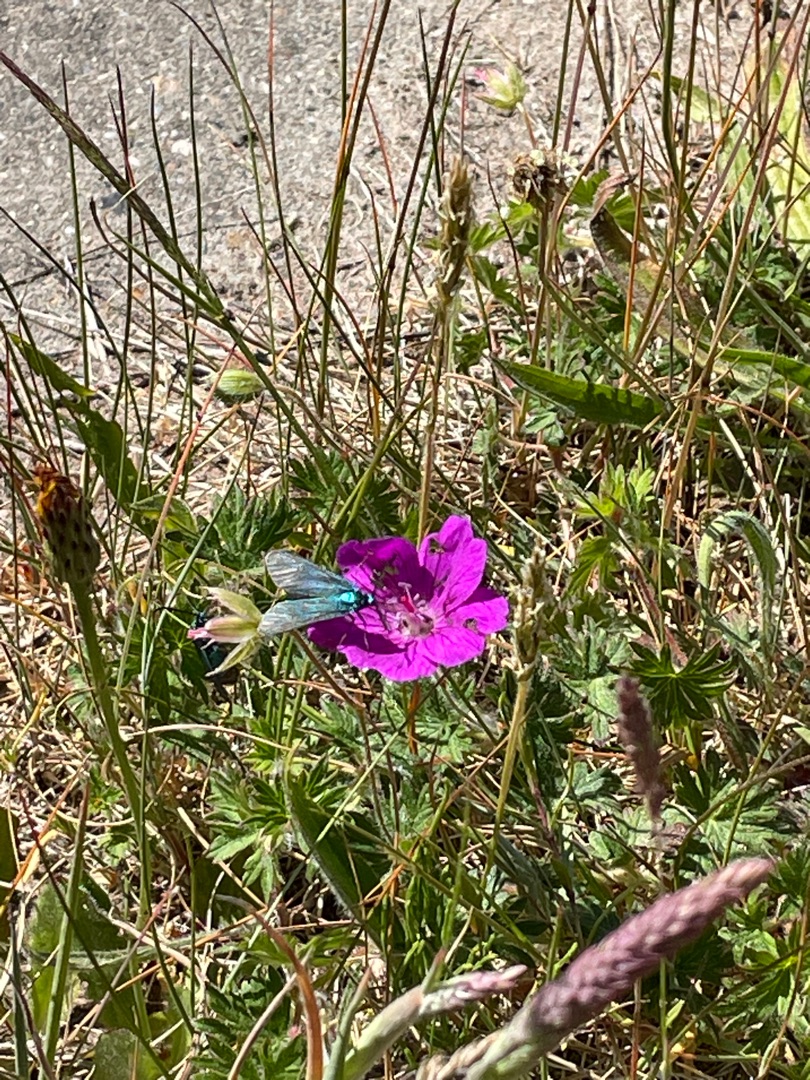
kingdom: Animalia
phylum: Arthropoda
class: Insecta
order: Lepidoptera
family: Zygaenidae
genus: Adscita
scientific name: Adscita statices
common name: Metalvinge
